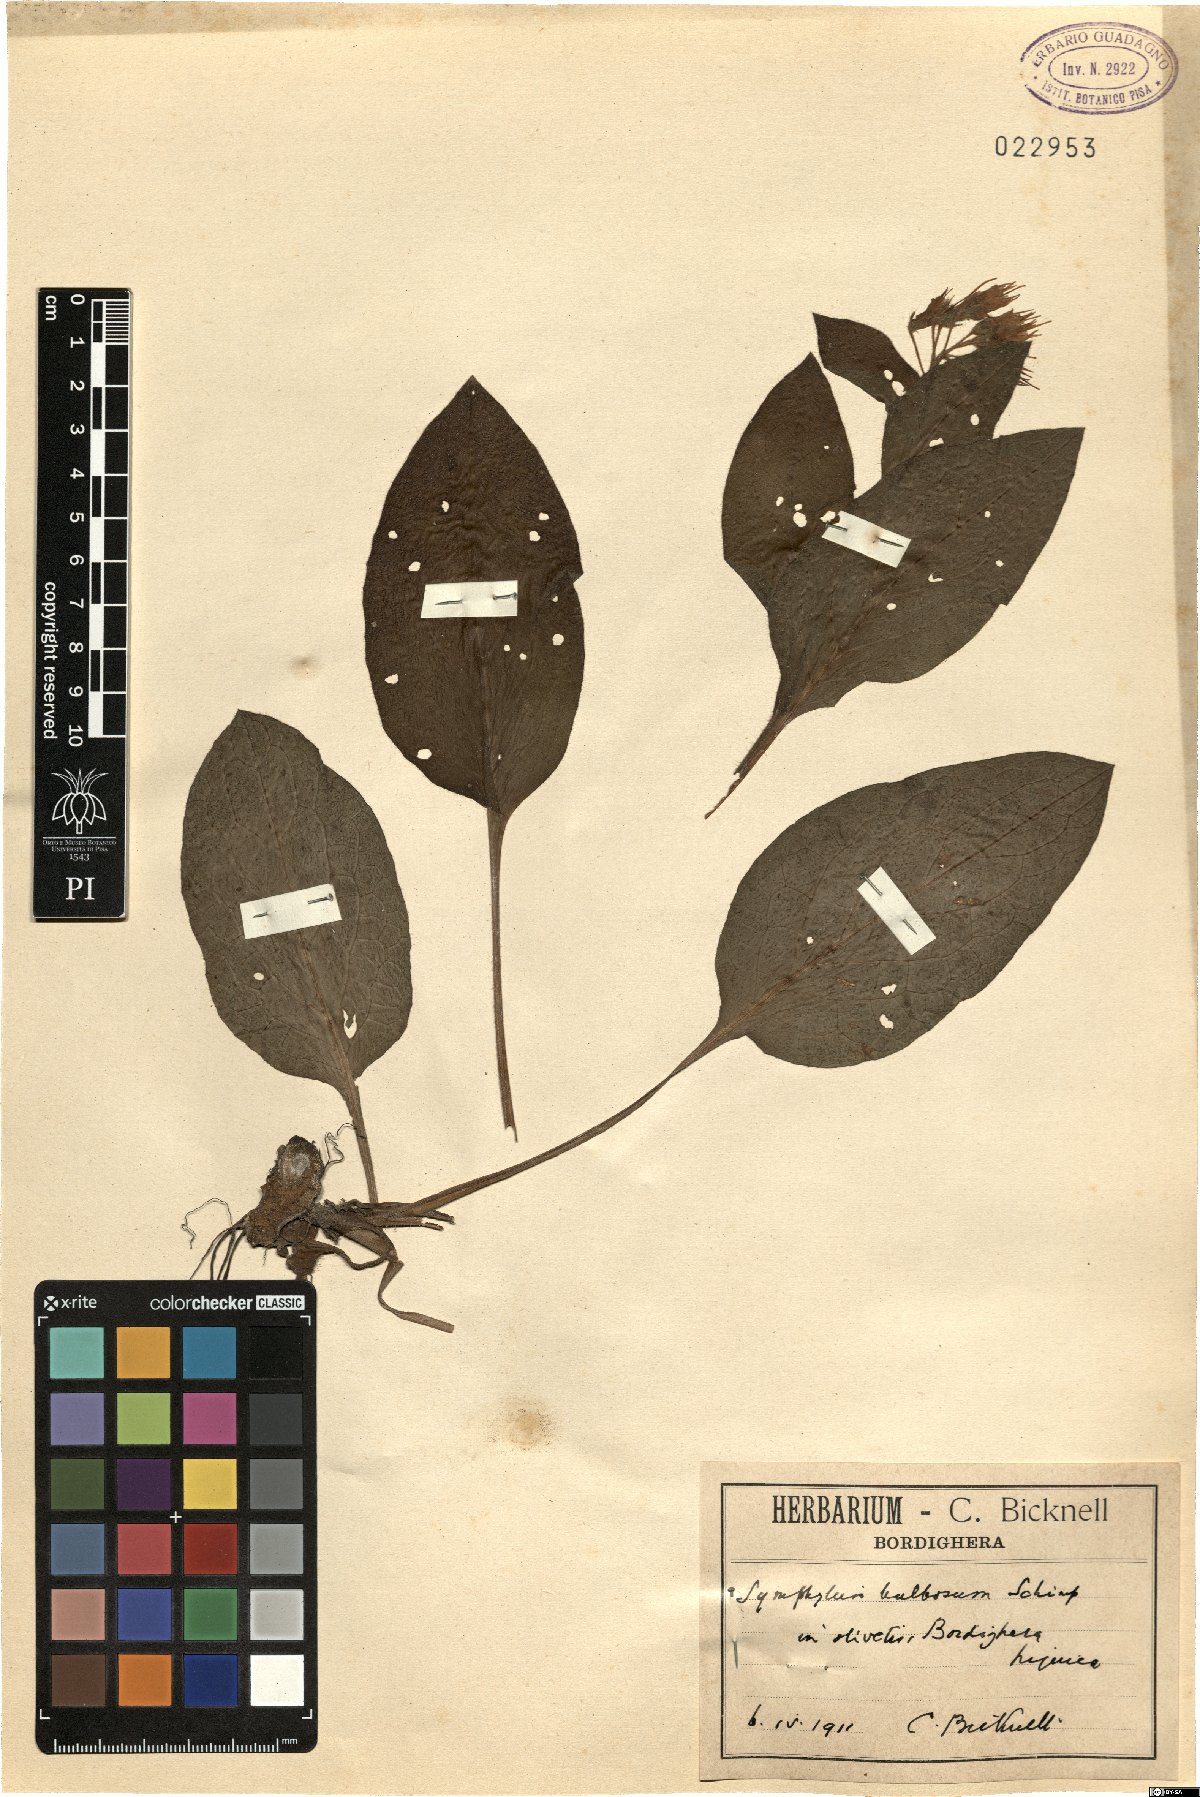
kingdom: Plantae
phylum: Tracheophyta
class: Magnoliopsida
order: Boraginales
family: Boraginaceae
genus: Symphytum
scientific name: Symphytum bulbosum
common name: Bulbous comfrey
